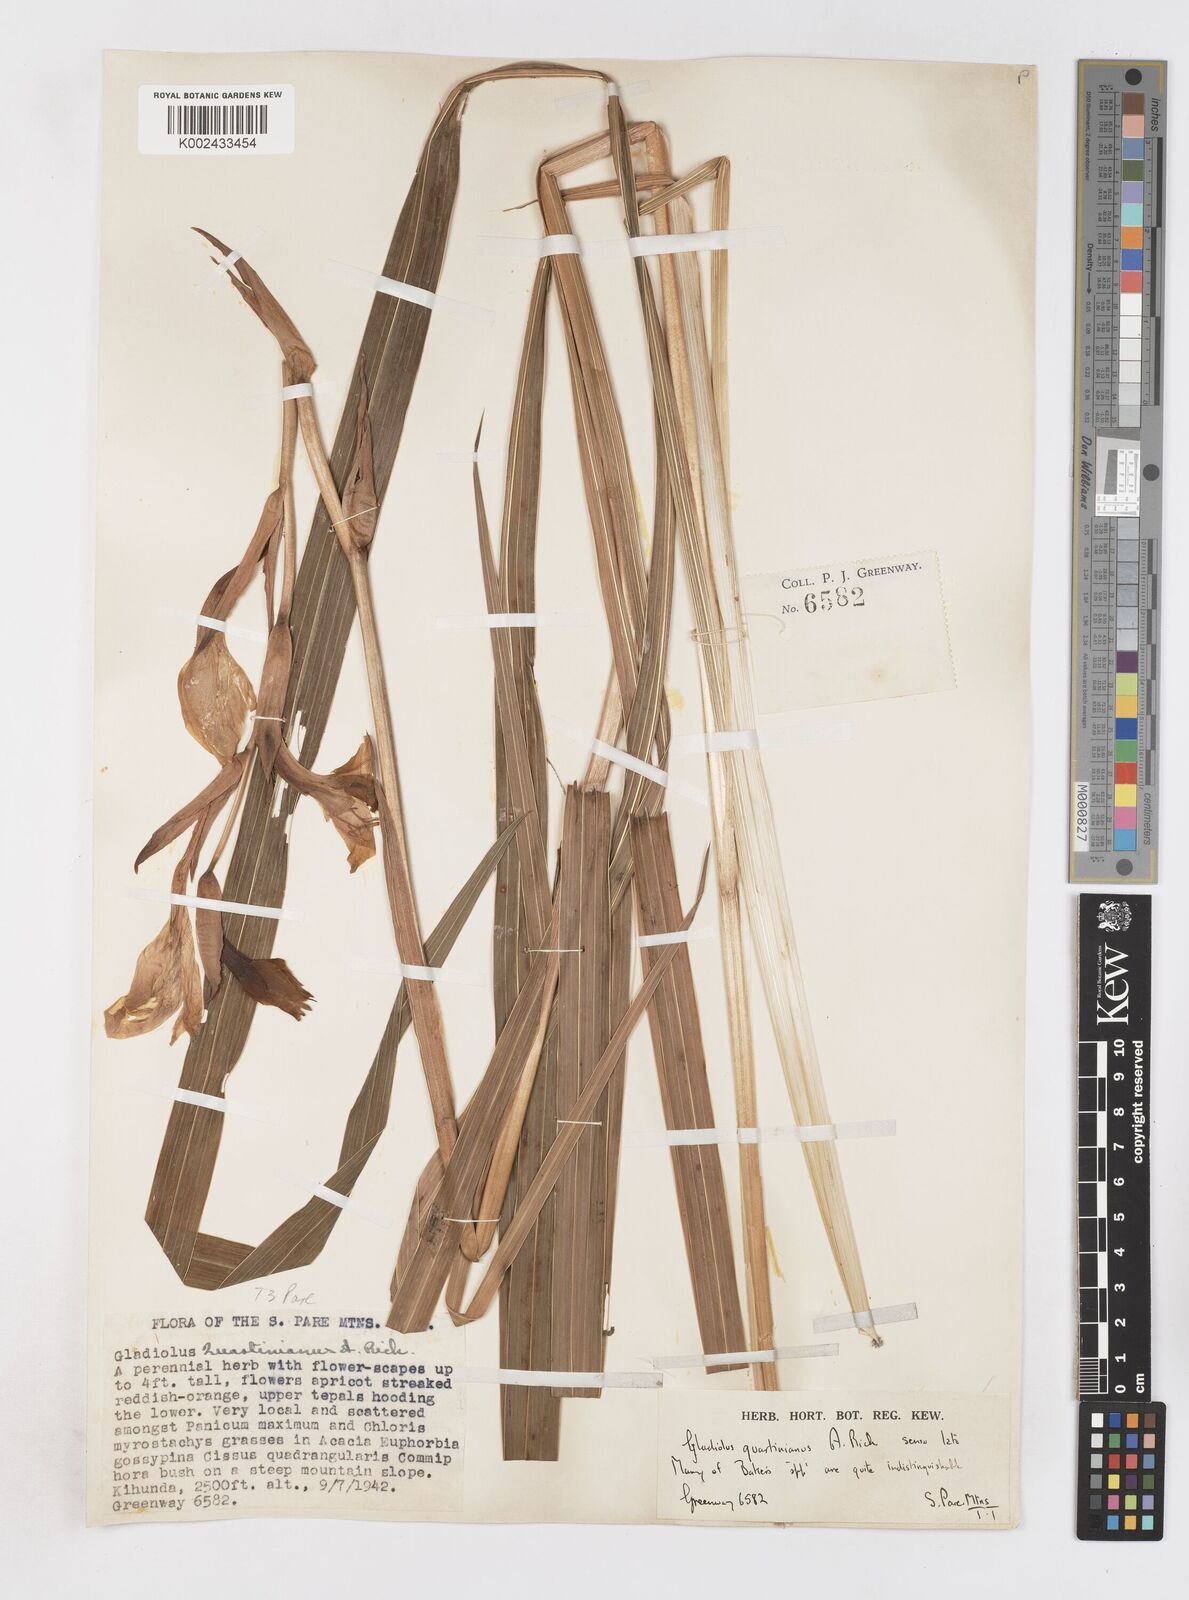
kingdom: Plantae
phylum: Tracheophyta
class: Liliopsida
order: Asparagales
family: Iridaceae
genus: Gladiolus
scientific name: Gladiolus dalenii
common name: Cornflag
